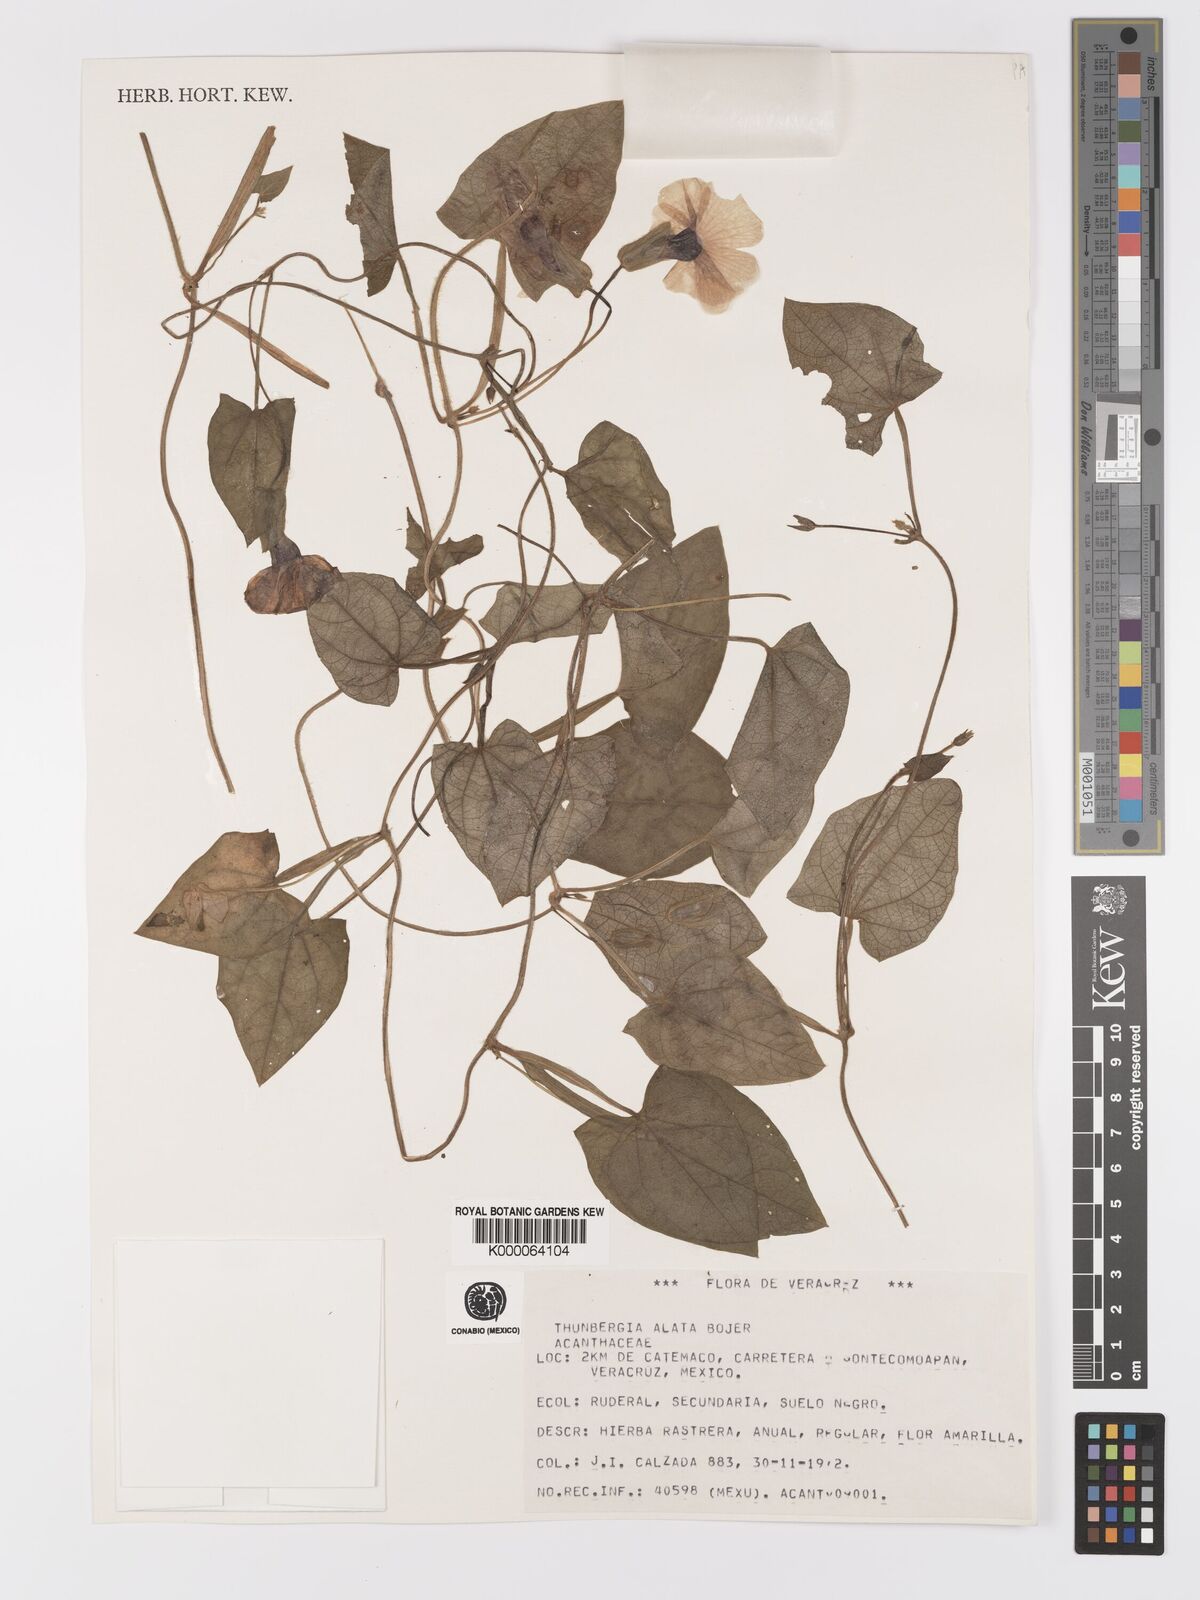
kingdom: Plantae
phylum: Tracheophyta
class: Magnoliopsida
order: Lamiales
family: Acanthaceae
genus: Thunbergia
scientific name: Thunbergia alata
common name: Blackeyed susan vine
